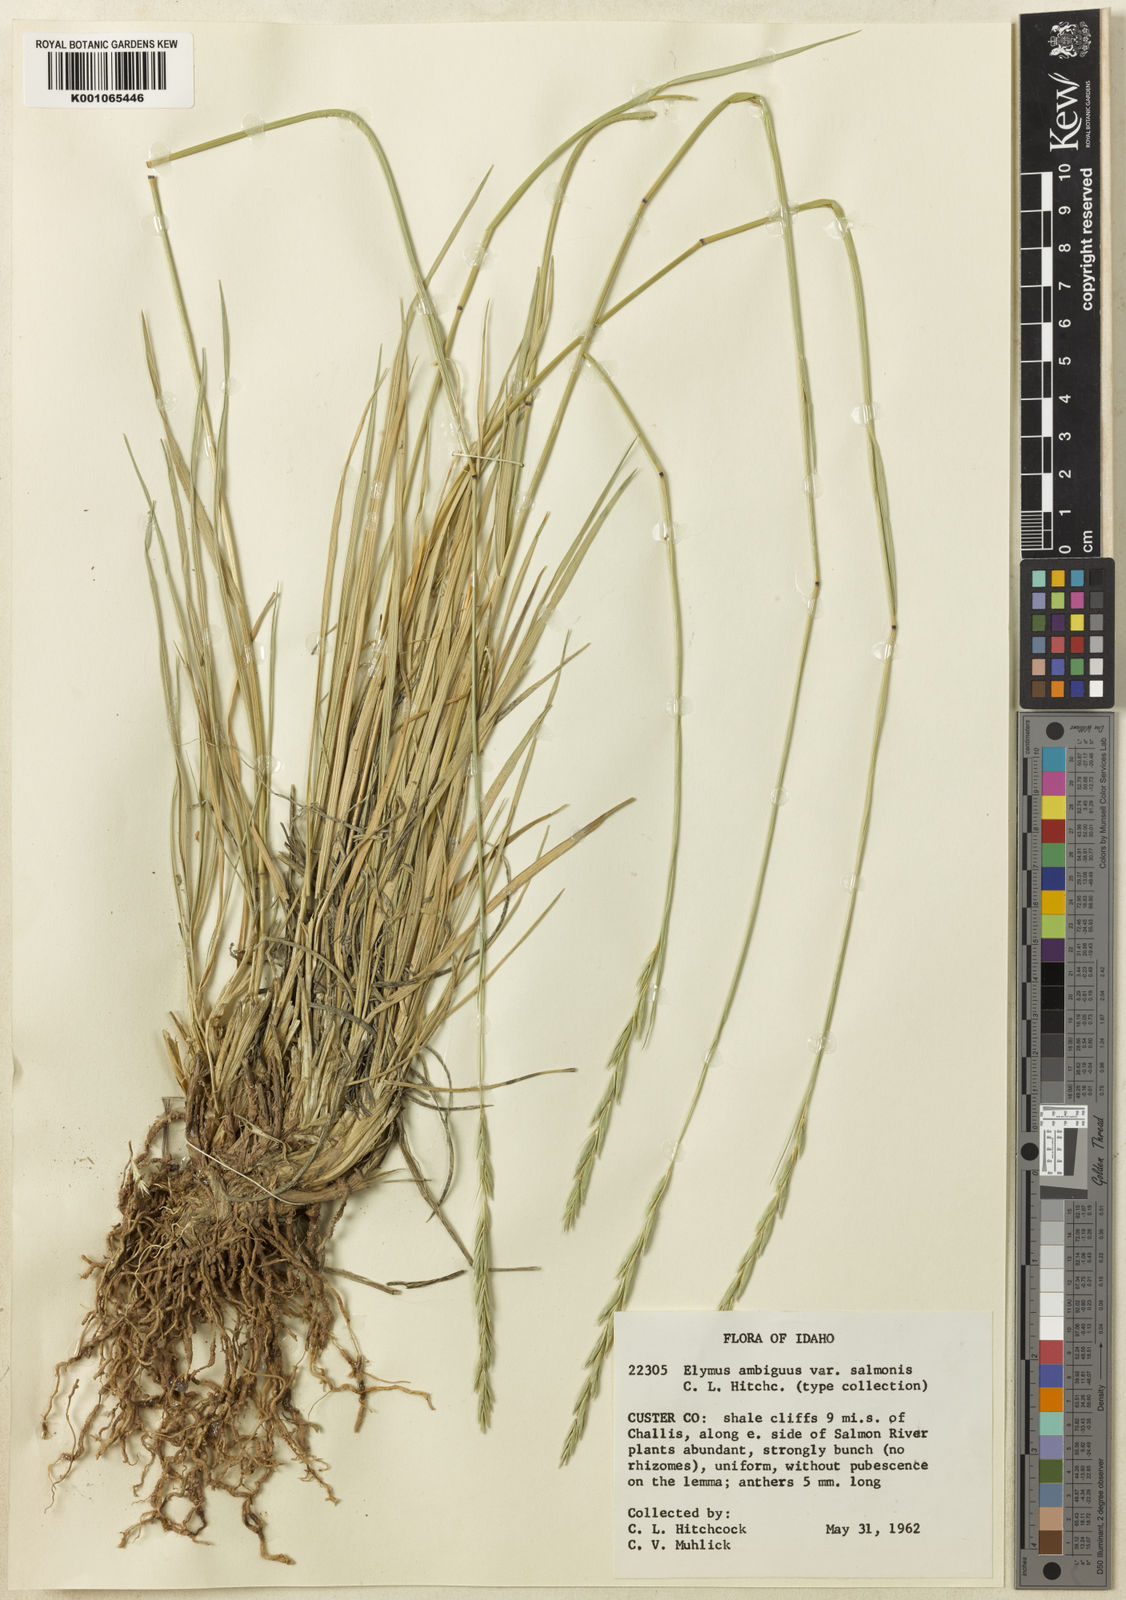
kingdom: Plantae
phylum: Tracheophyta
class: Liliopsida
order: Poales
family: Poaceae
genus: Leymus
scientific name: Leymus ambiguus
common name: Colorado wild rye
